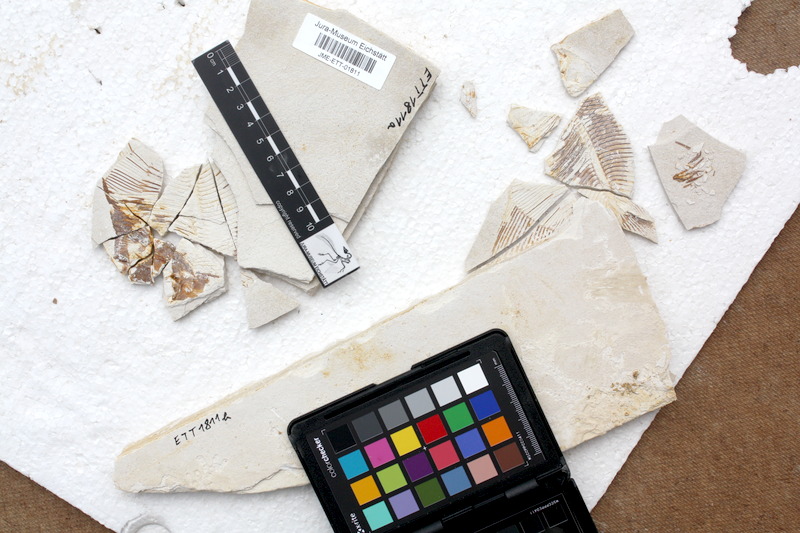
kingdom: Animalia
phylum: Chordata
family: Pycnodontidae
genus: Turbomesodon
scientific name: Turbomesodon relegans
